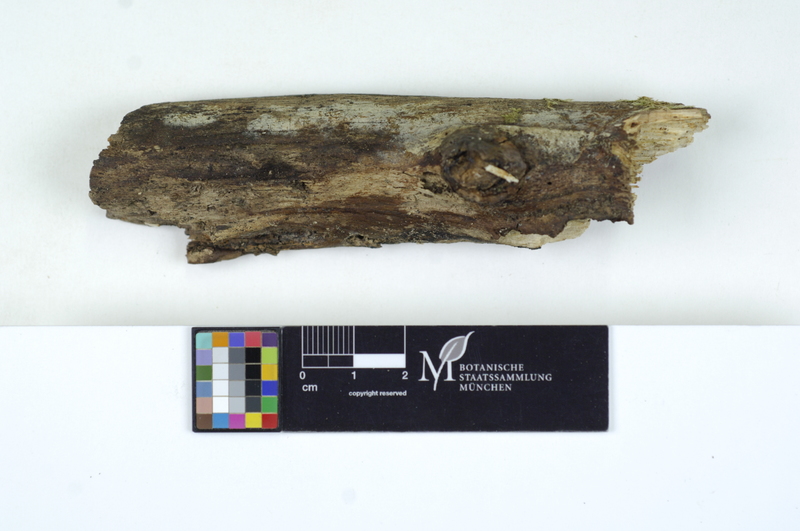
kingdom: Plantae
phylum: Tracheophyta
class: Magnoliopsida
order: Fagales
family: Fagaceae
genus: Fagus
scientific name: Fagus sylvatica
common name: Beech
